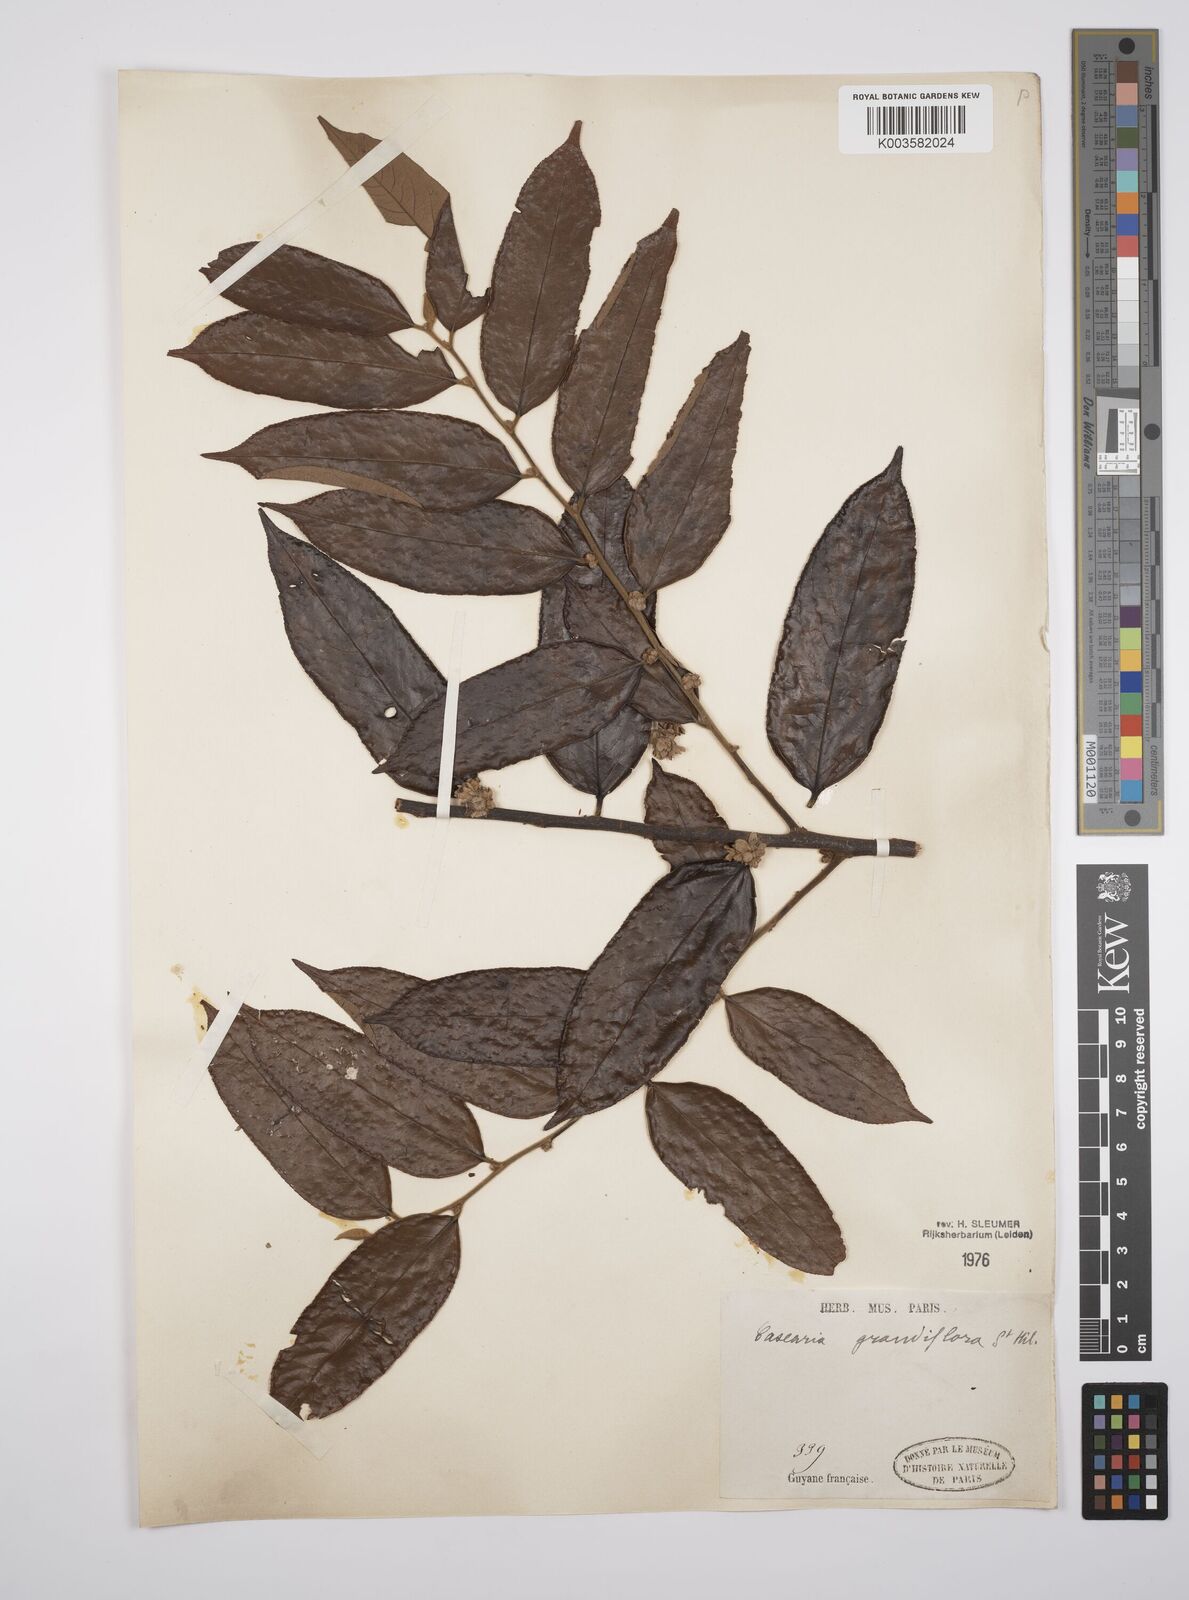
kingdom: Plantae
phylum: Tracheophyta
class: Magnoliopsida
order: Malpighiales
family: Salicaceae
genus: Casearia
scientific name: Casearia grandiflora
